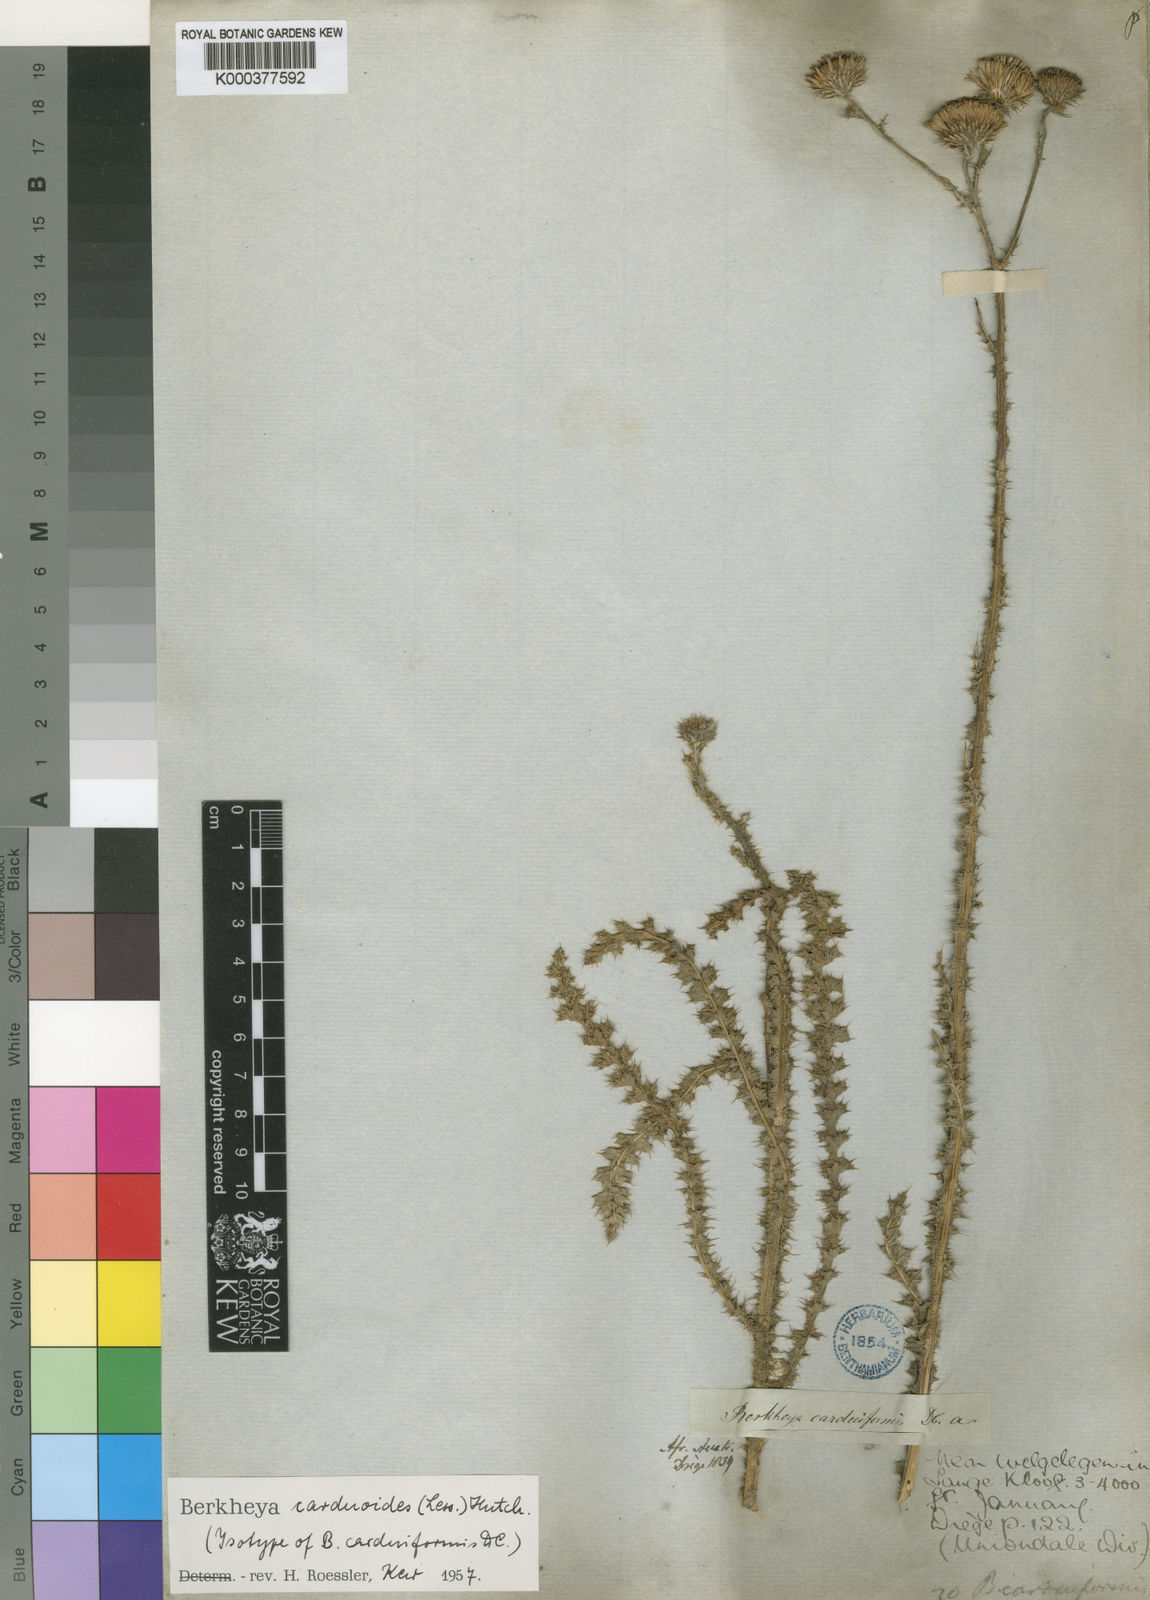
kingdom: Plantae
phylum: Tracheophyta
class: Magnoliopsida
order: Asterales
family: Asteraceae
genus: Berkheya
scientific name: Berkheya carduoides
